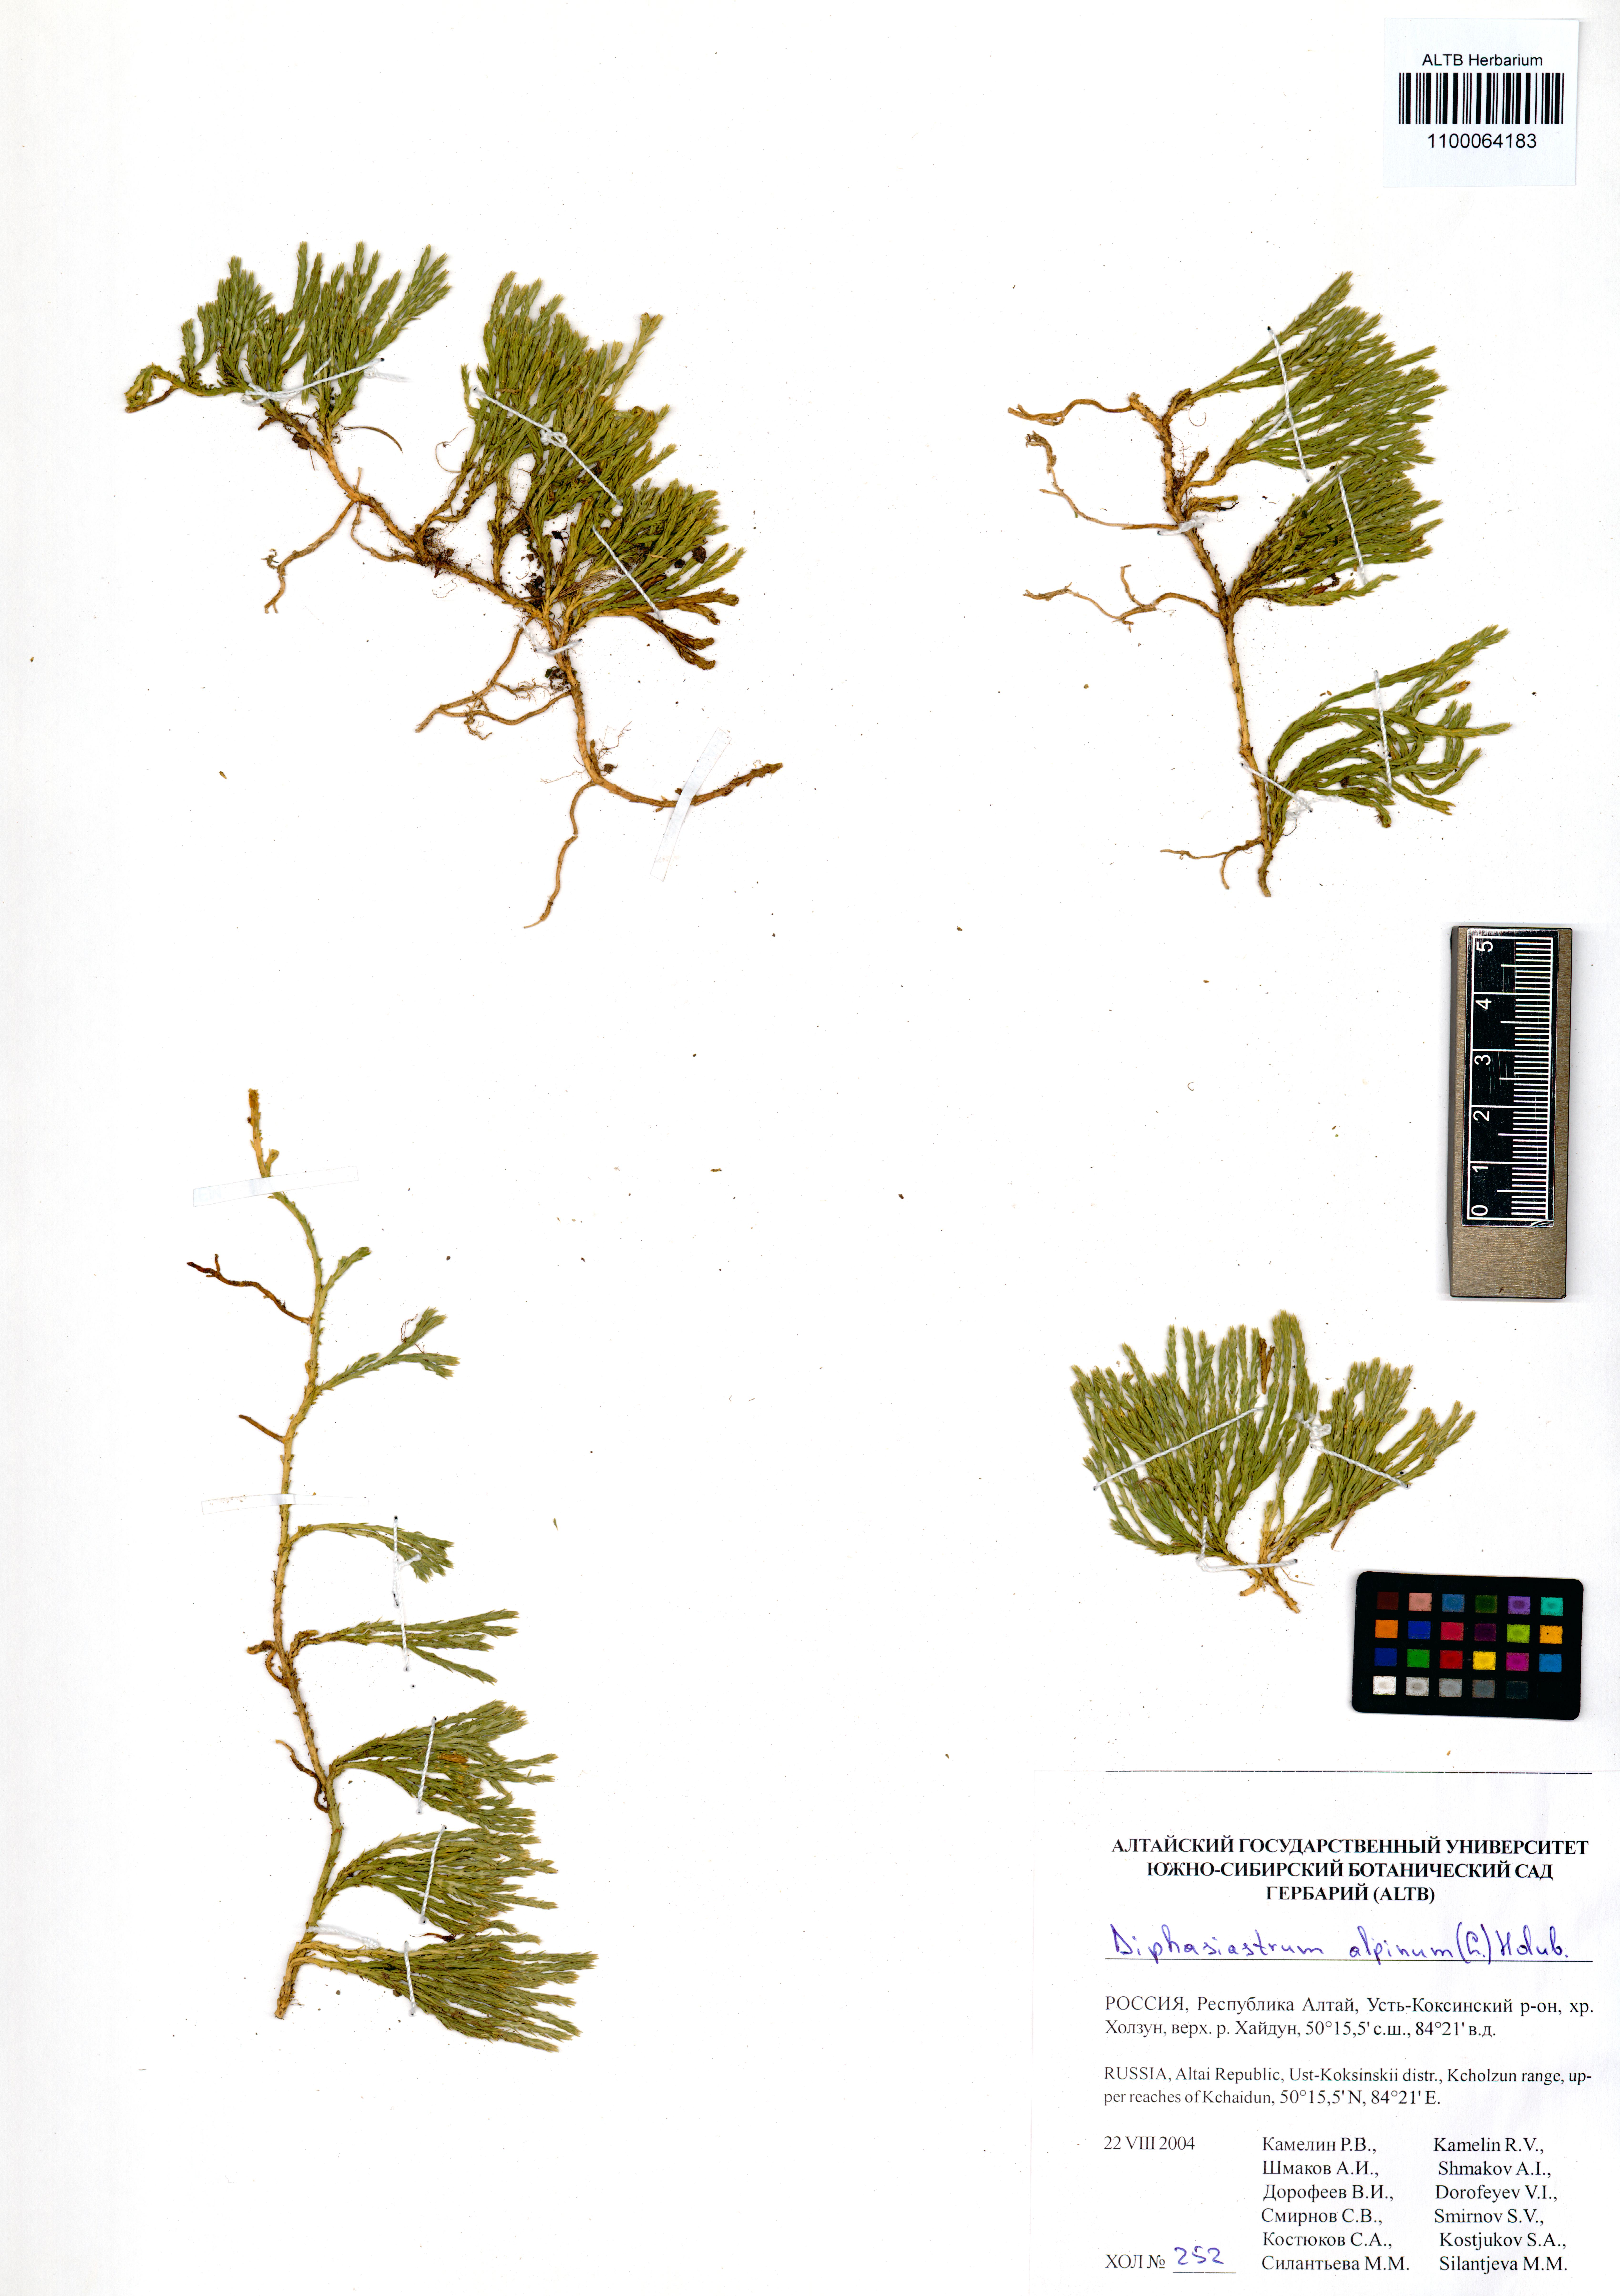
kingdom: Plantae
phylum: Tracheophyta
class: Lycopodiopsida
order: Lycopodiales
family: Lycopodiaceae
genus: Diphasiastrum
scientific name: Diphasiastrum alpinum
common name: Alpine clubmoss
